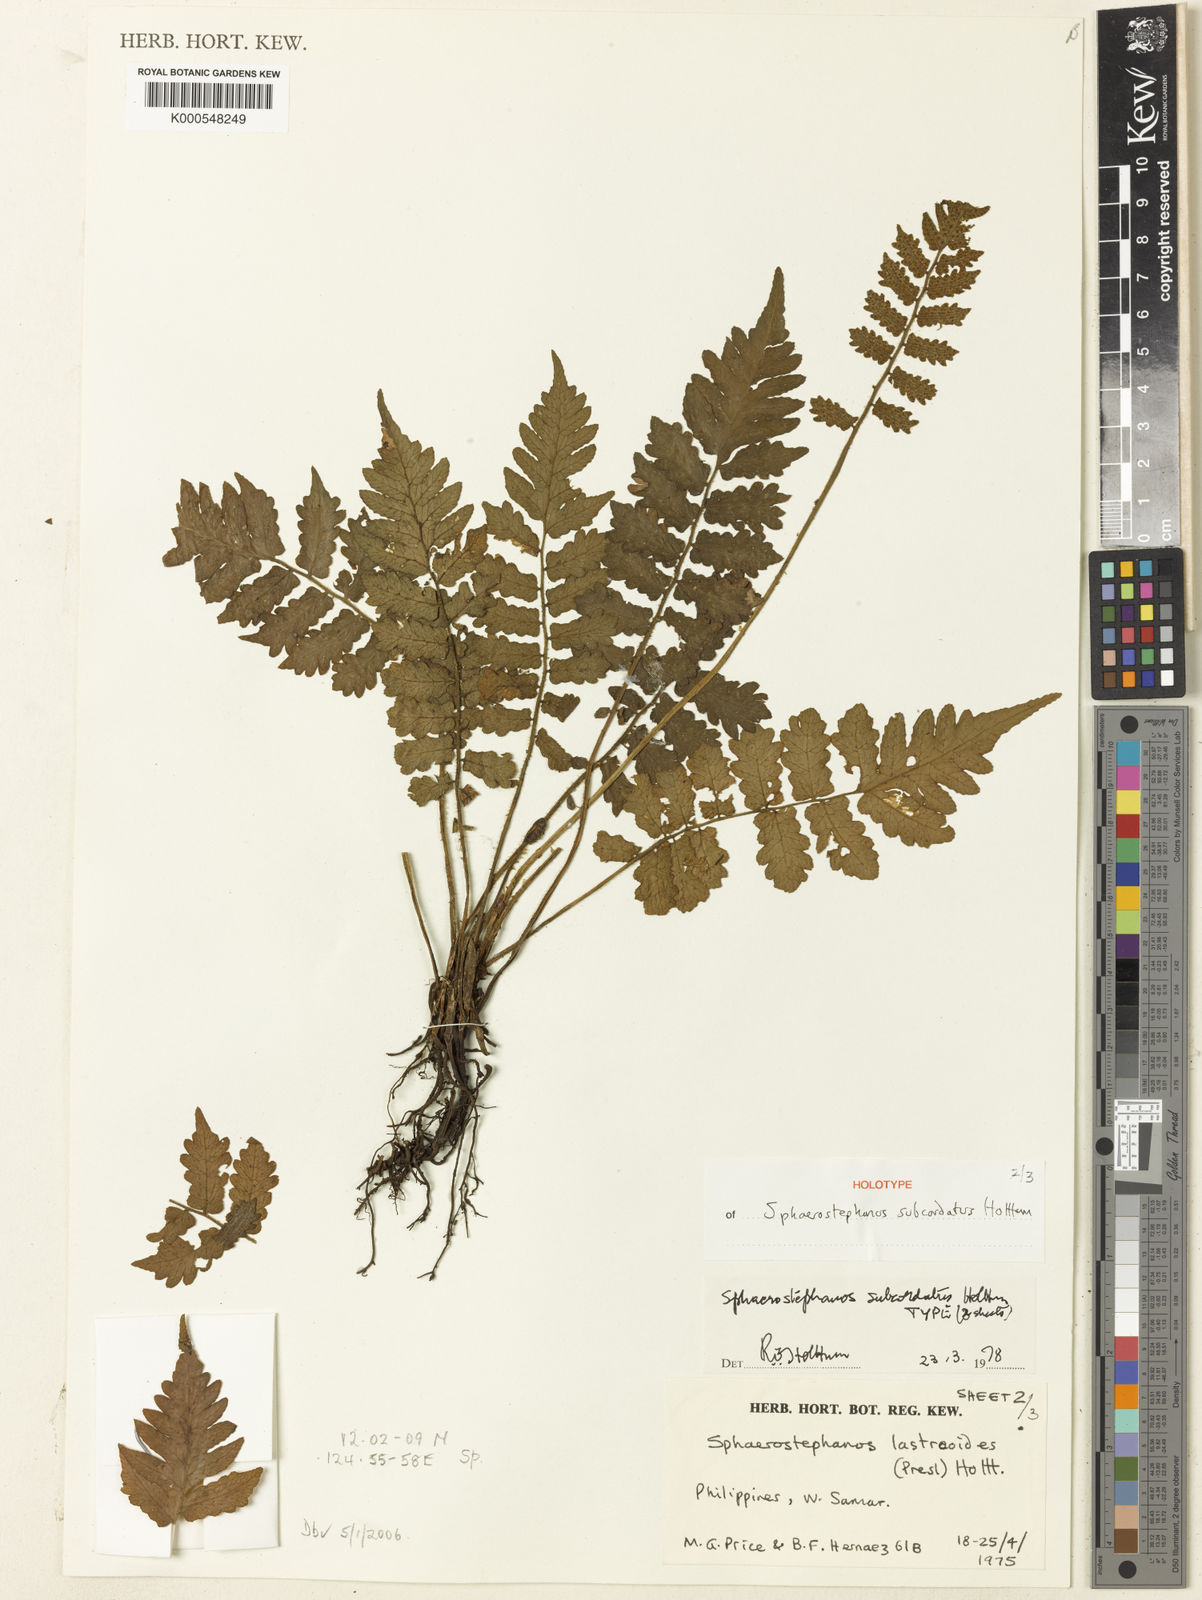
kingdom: Plantae
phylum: Tracheophyta
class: Polypodiopsida
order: Polypodiales
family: Thelypteridaceae
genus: Sphaerostephanos
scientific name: Sphaerostephanos subcordatus
